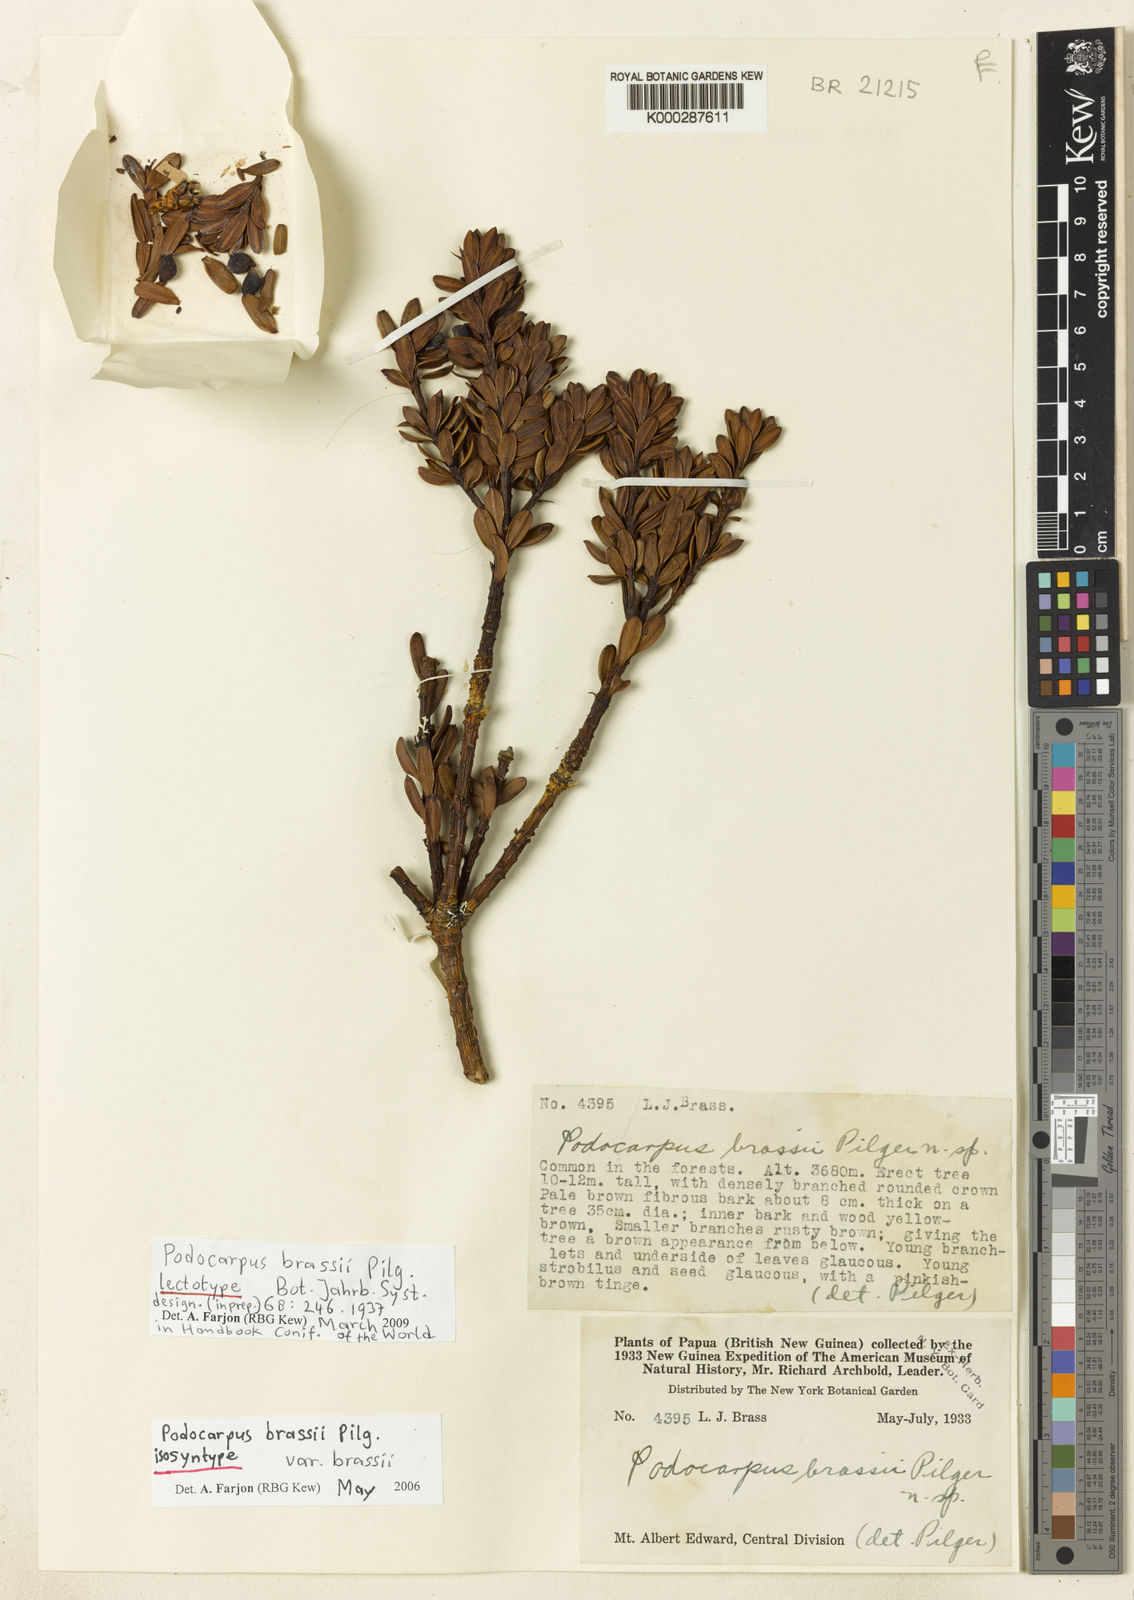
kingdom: Plantae
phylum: Tracheophyta
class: Pinopsida
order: Pinales
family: Podocarpaceae
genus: Podocarpus
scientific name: Podocarpus brassii
